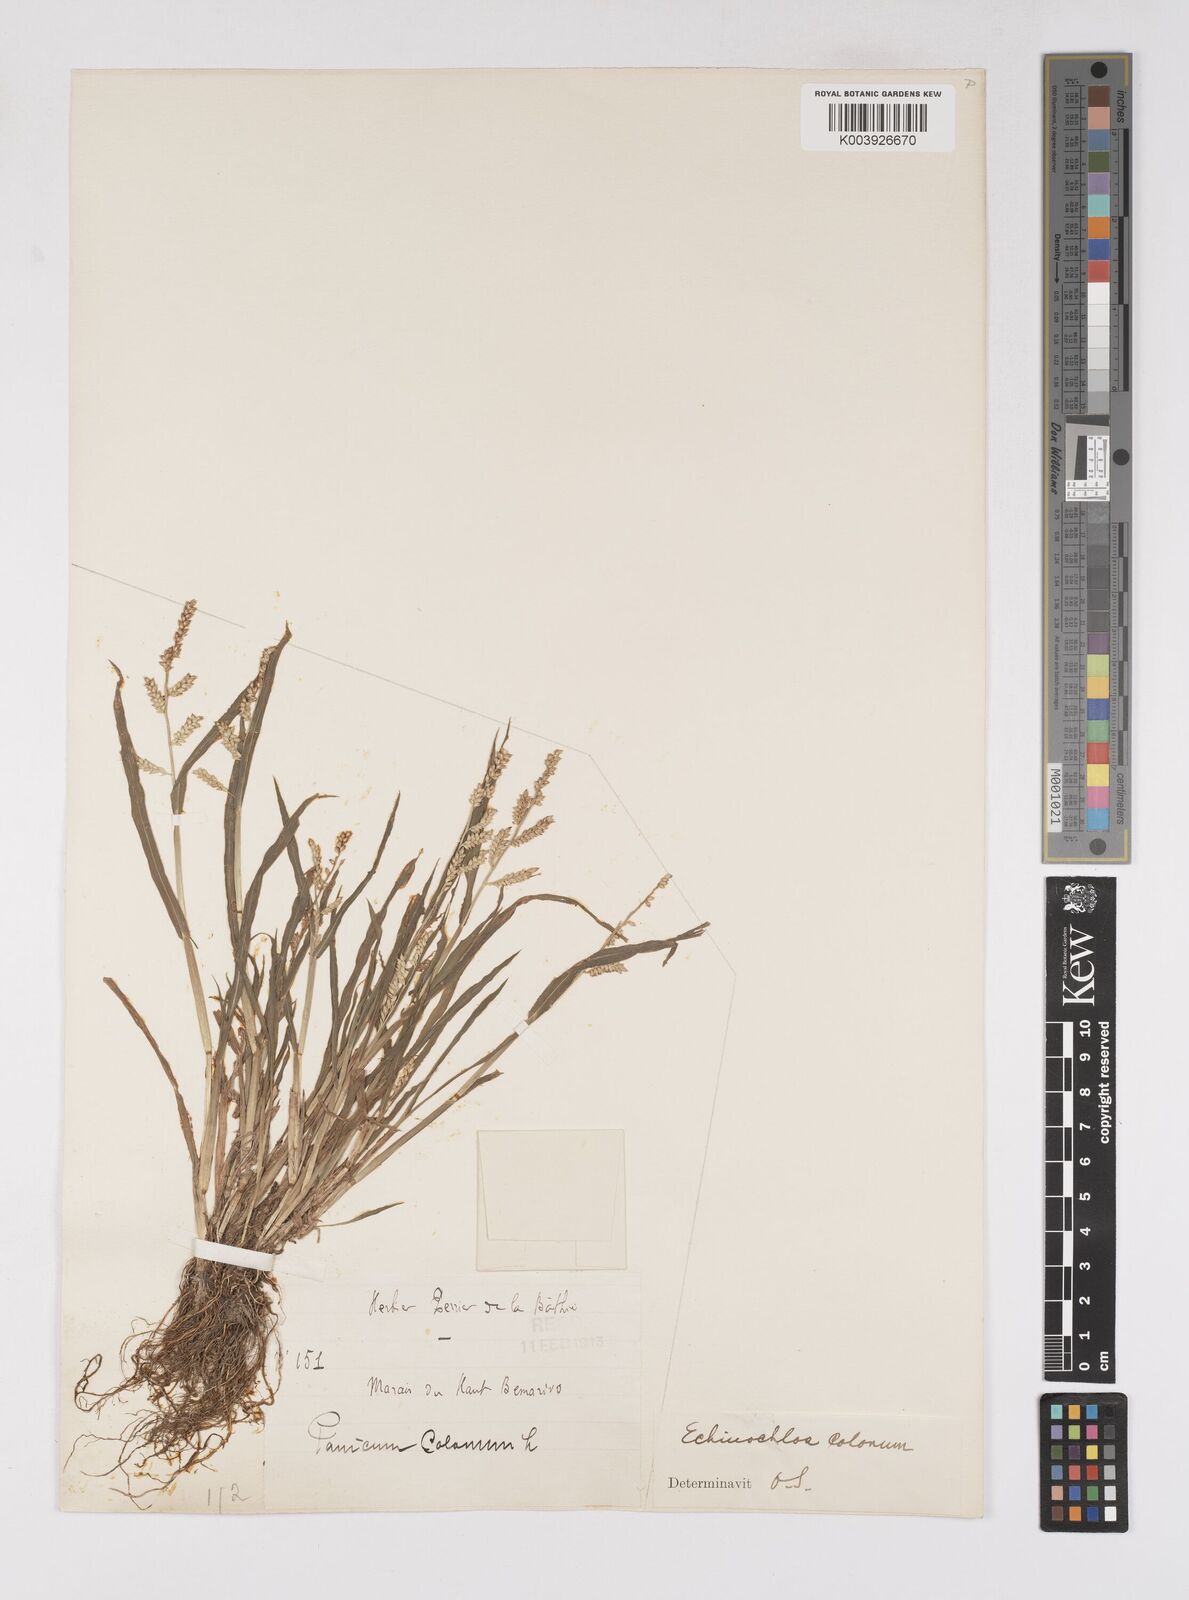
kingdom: Plantae
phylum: Tracheophyta
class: Liliopsida
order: Poales
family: Poaceae
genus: Echinochloa
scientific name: Echinochloa colonum
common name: Jungle rice
